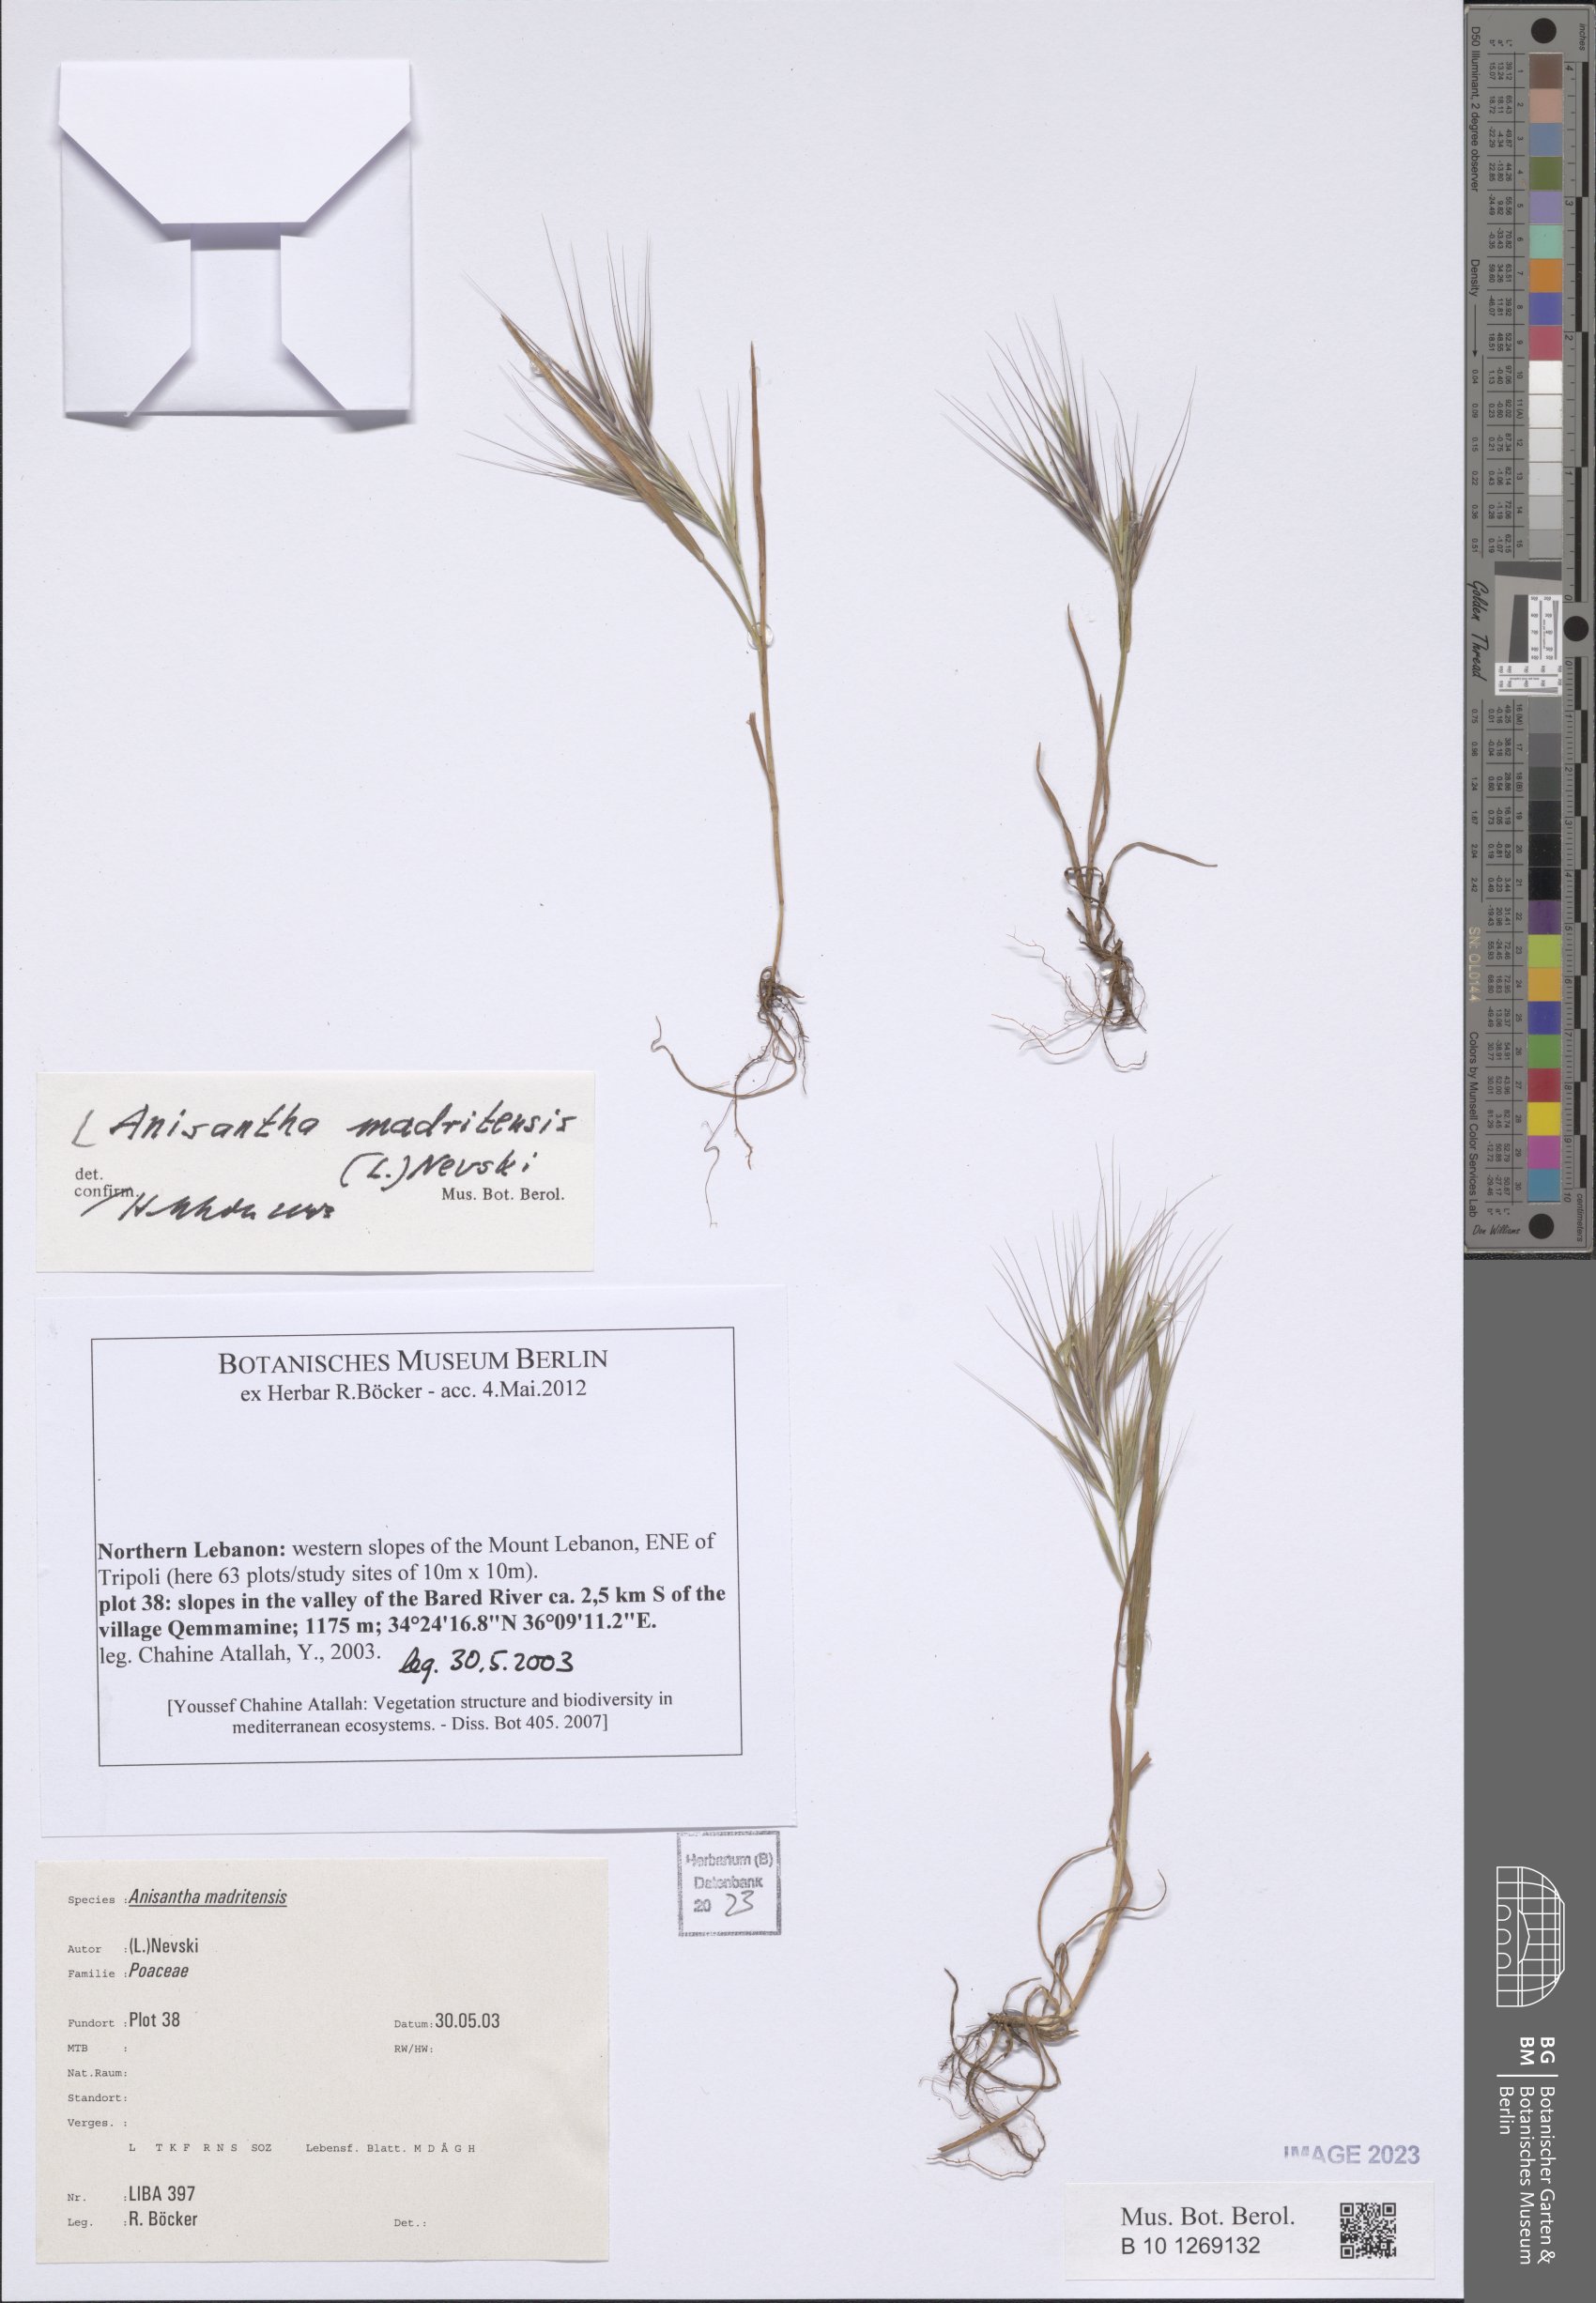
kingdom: Plantae
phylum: Tracheophyta
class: Liliopsida
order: Poales
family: Poaceae
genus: Bromus
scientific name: Bromus madritensis
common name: Compact brome
